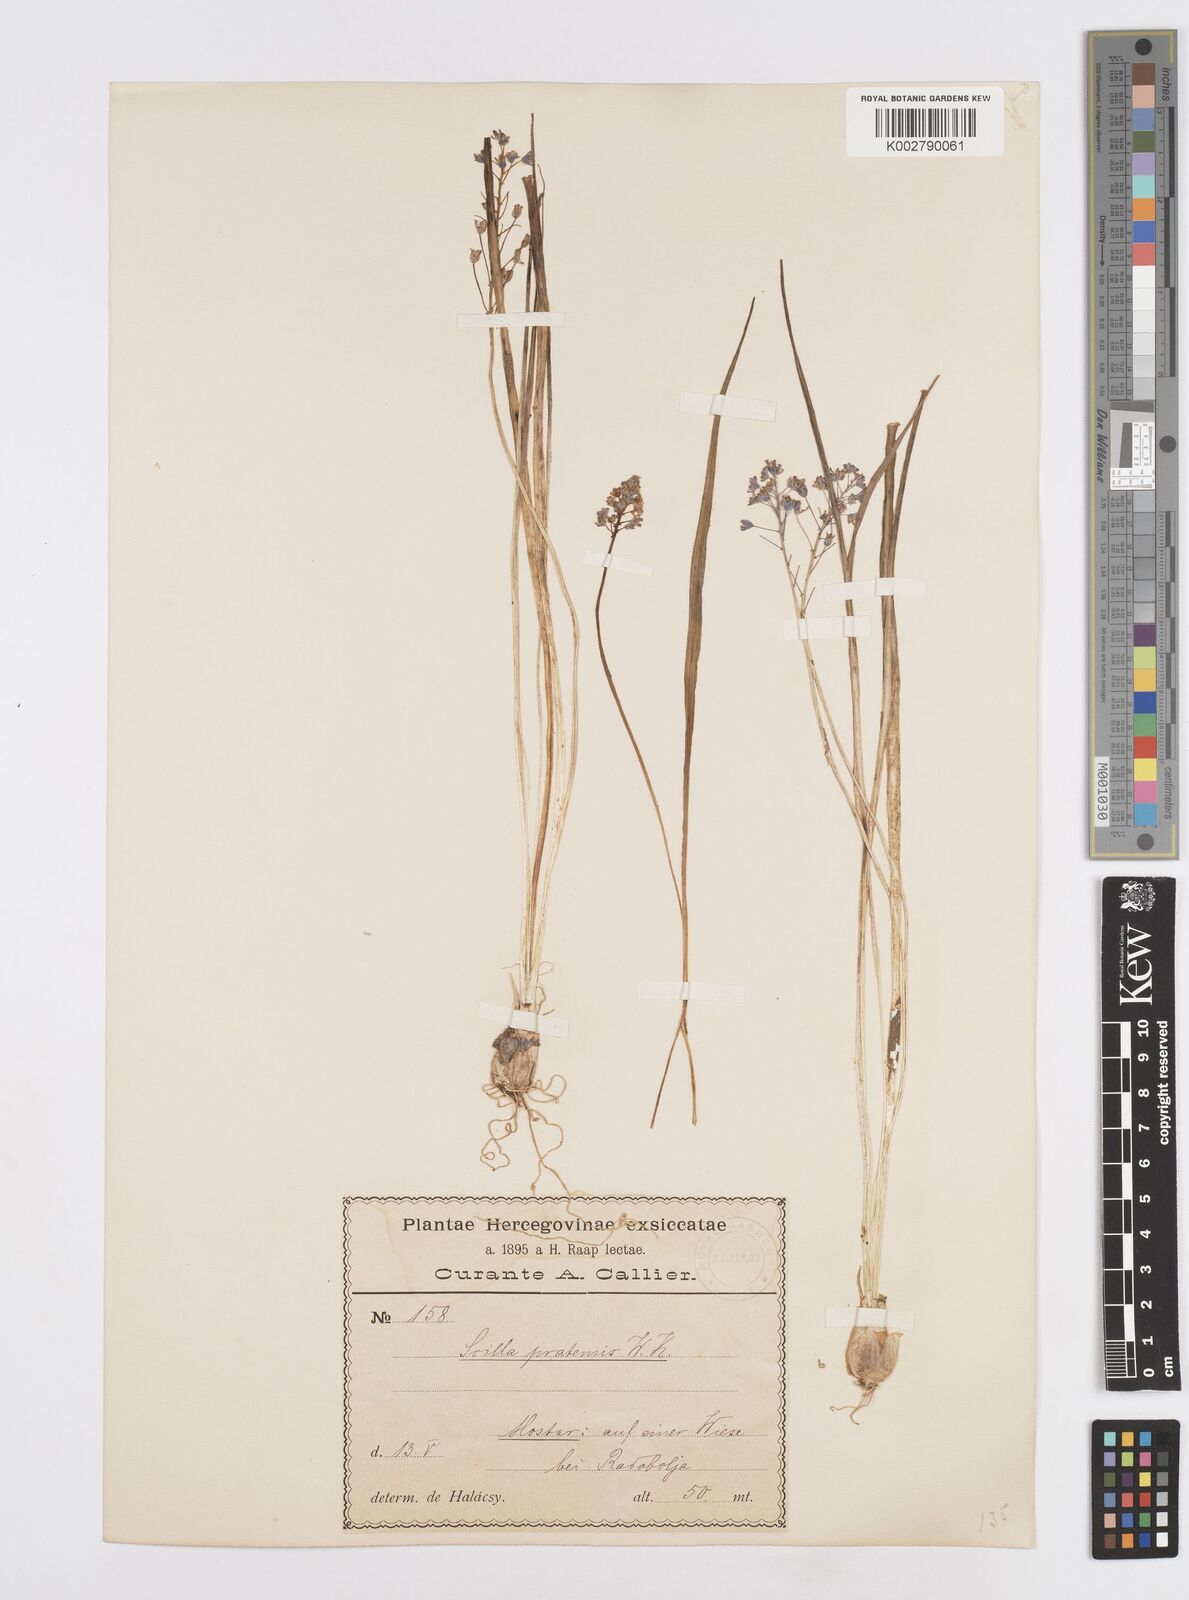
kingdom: Plantae
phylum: Tracheophyta
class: Liliopsida
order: Asparagales
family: Asparagaceae
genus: Scilla
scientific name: Scilla litardierei
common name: Amethyst meadow squill
